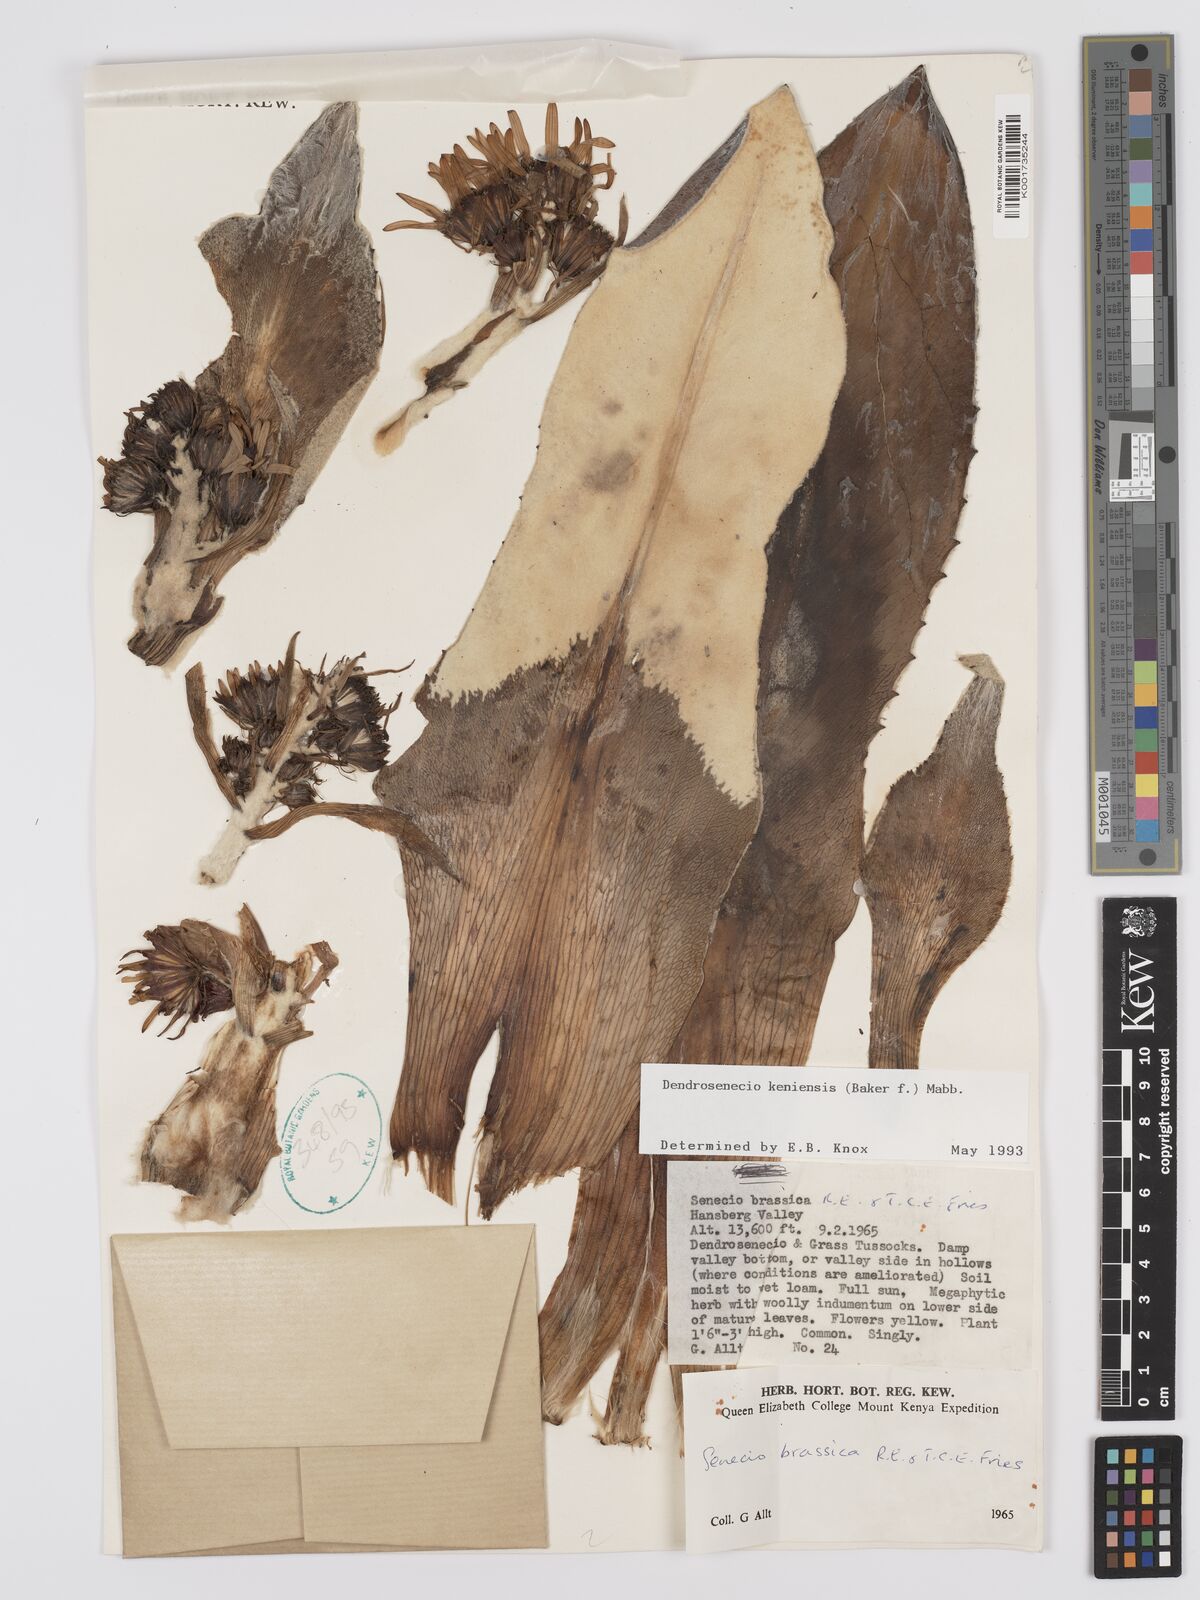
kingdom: Plantae
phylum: Tracheophyta
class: Magnoliopsida
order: Asterales
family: Asteraceae
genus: Dendrosenecio
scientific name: Dendrosenecio keniensis
